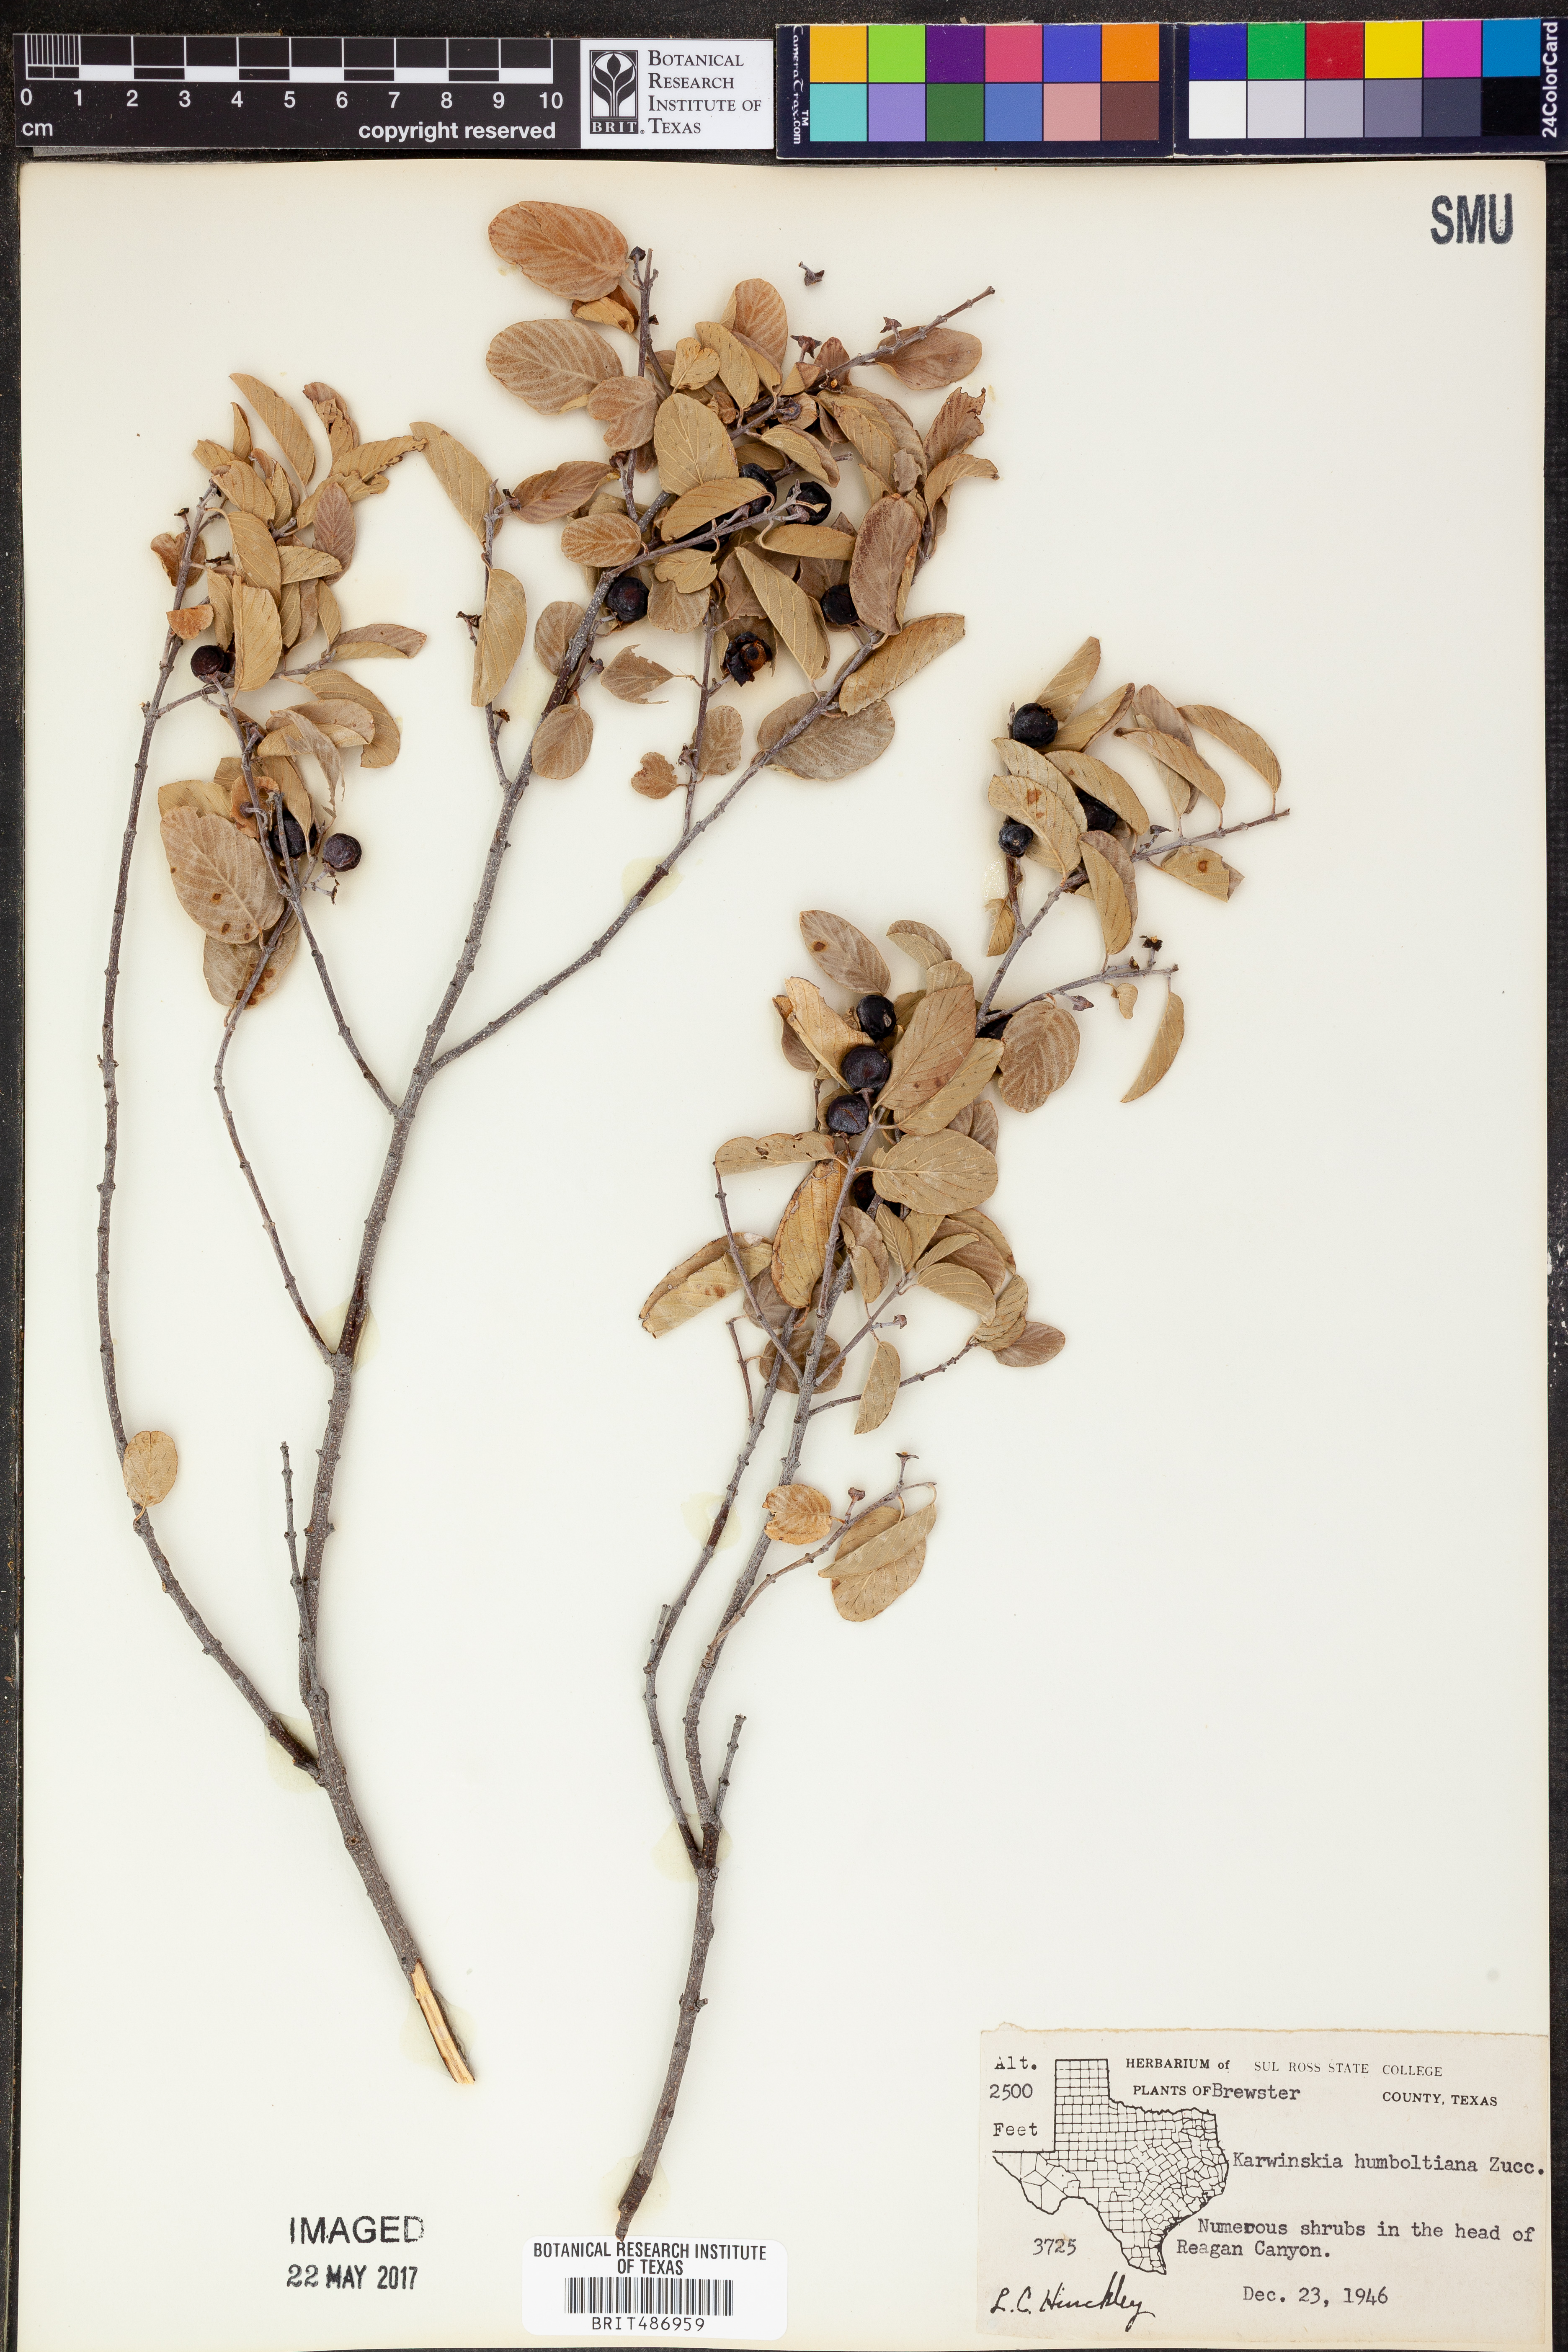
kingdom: Plantae
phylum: Tracheophyta
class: Magnoliopsida
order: Rosales
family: Rhamnaceae
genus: Karwinskia
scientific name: Karwinskia humboldtiana
